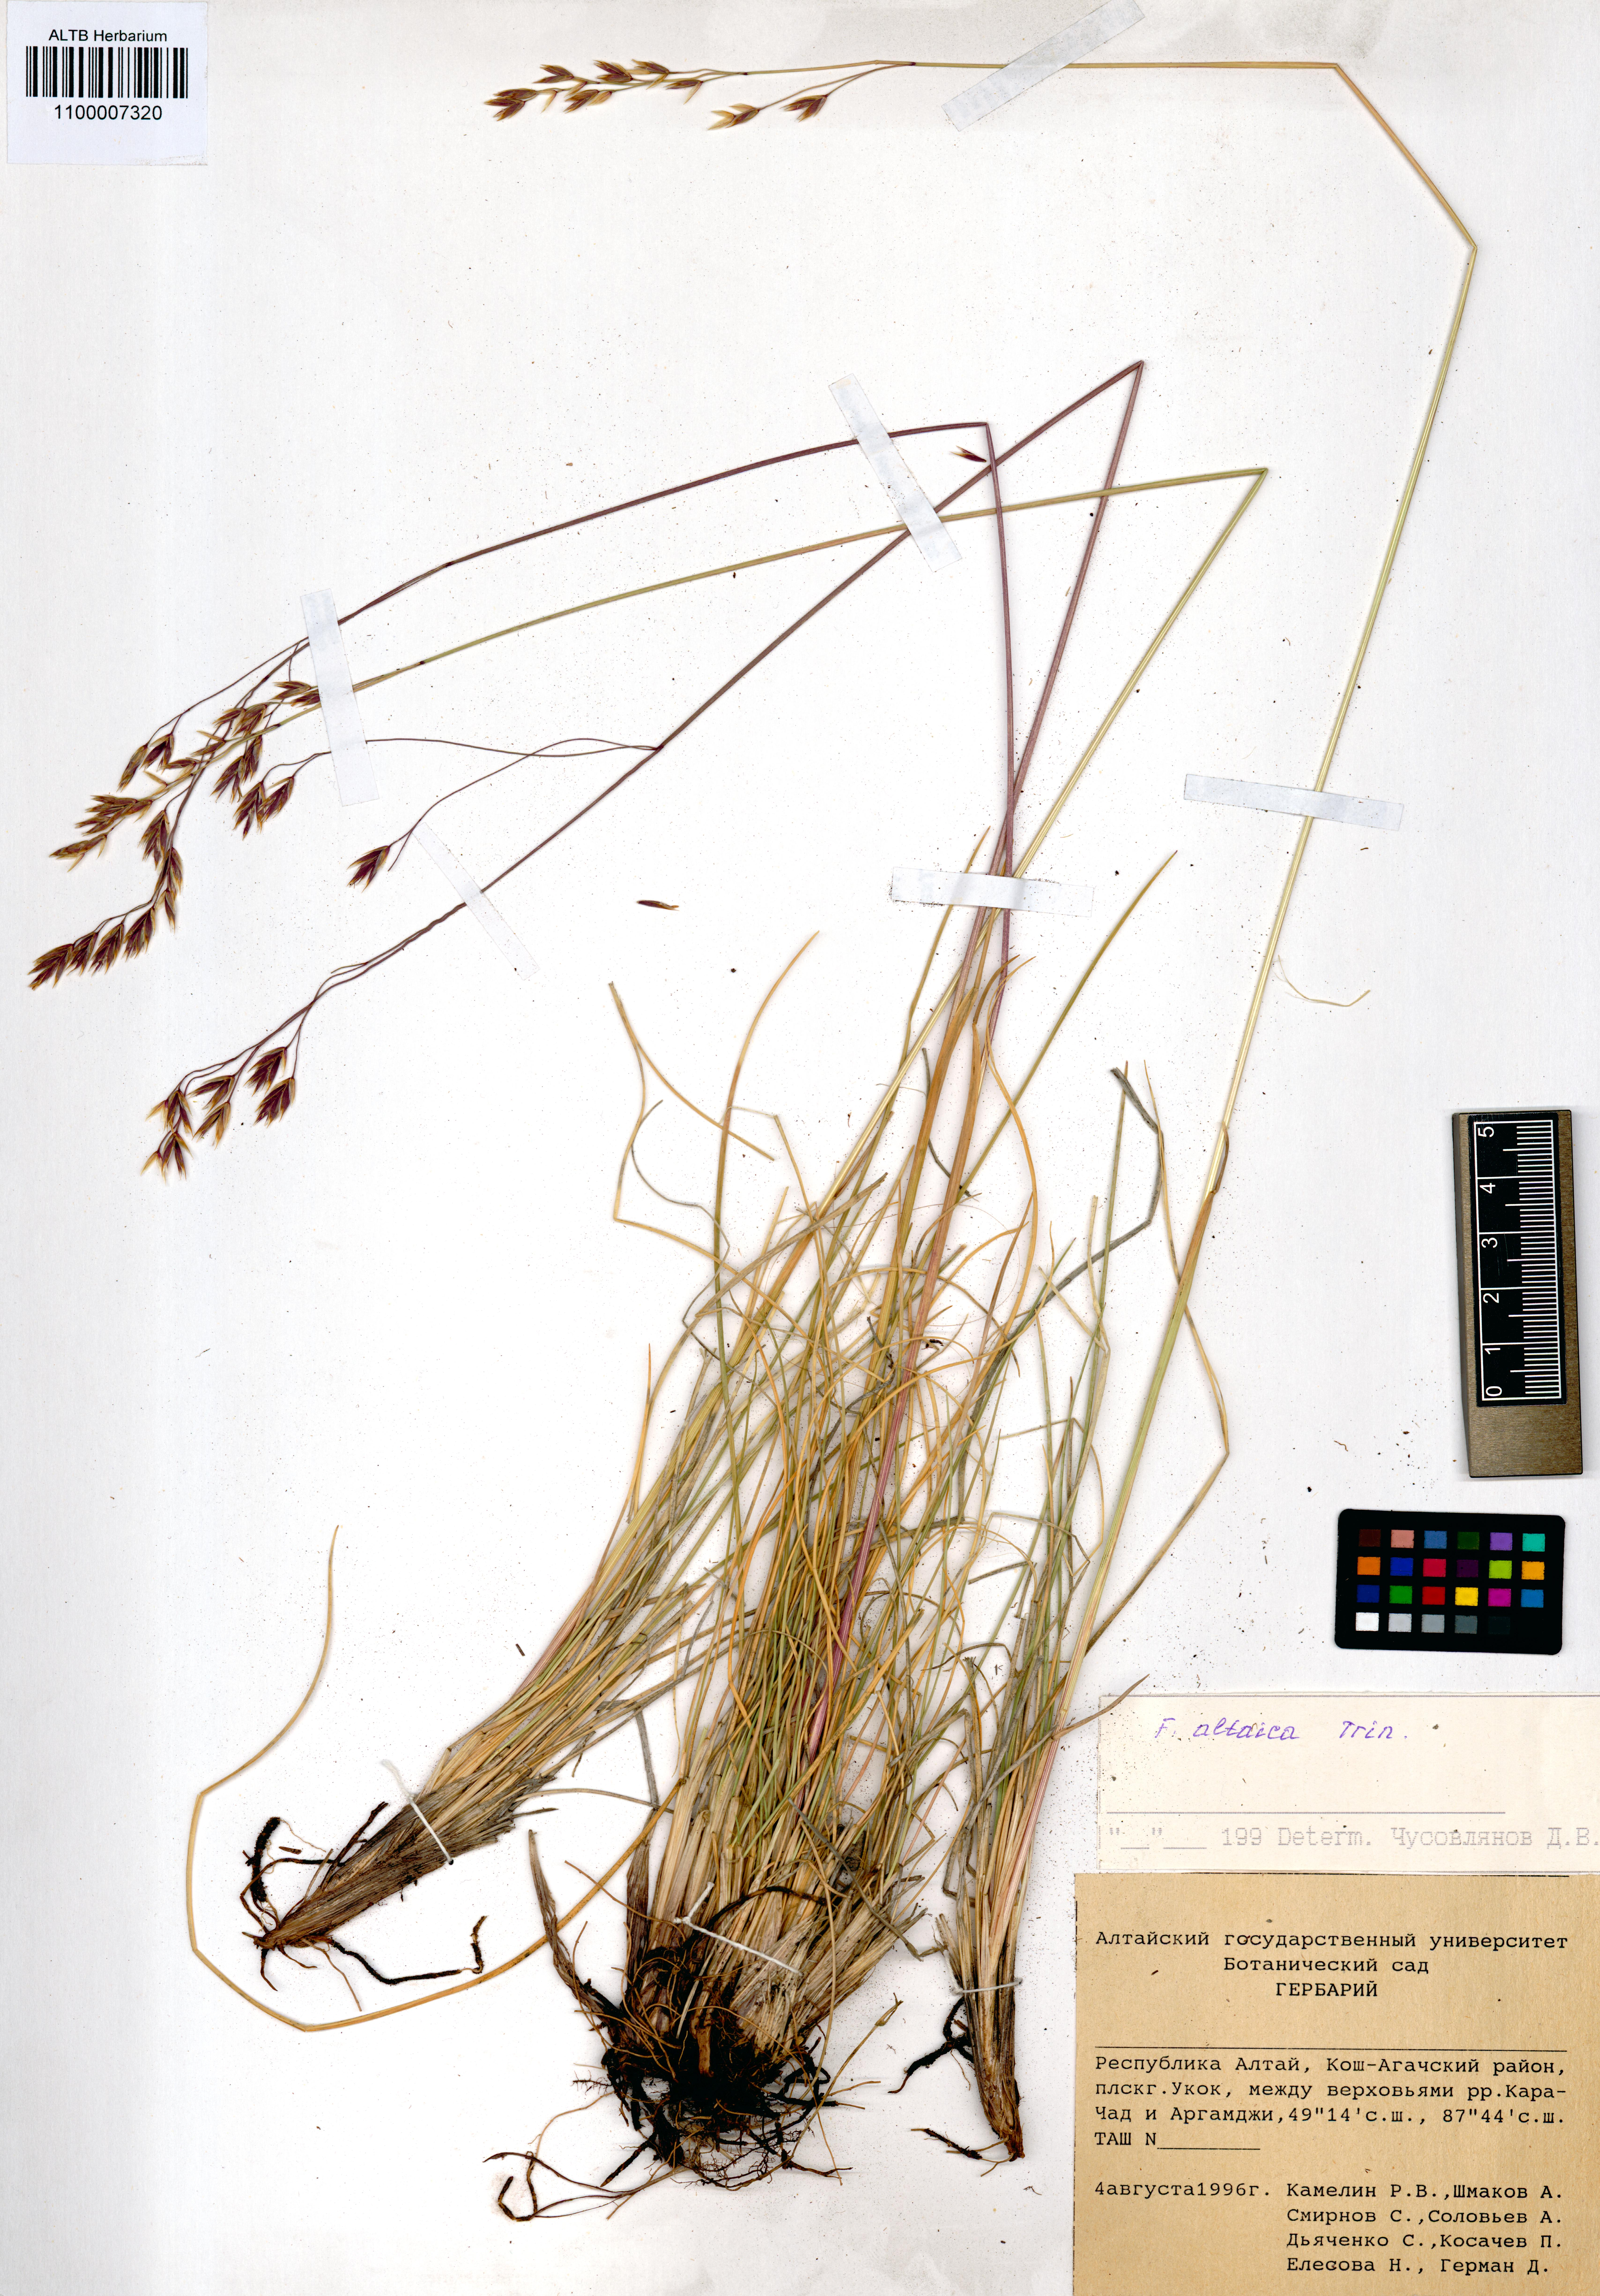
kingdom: Plantae
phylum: Tracheophyta
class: Liliopsida
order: Poales
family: Poaceae
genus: Festuca
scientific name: Festuca altaica
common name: Northern rough fescue
